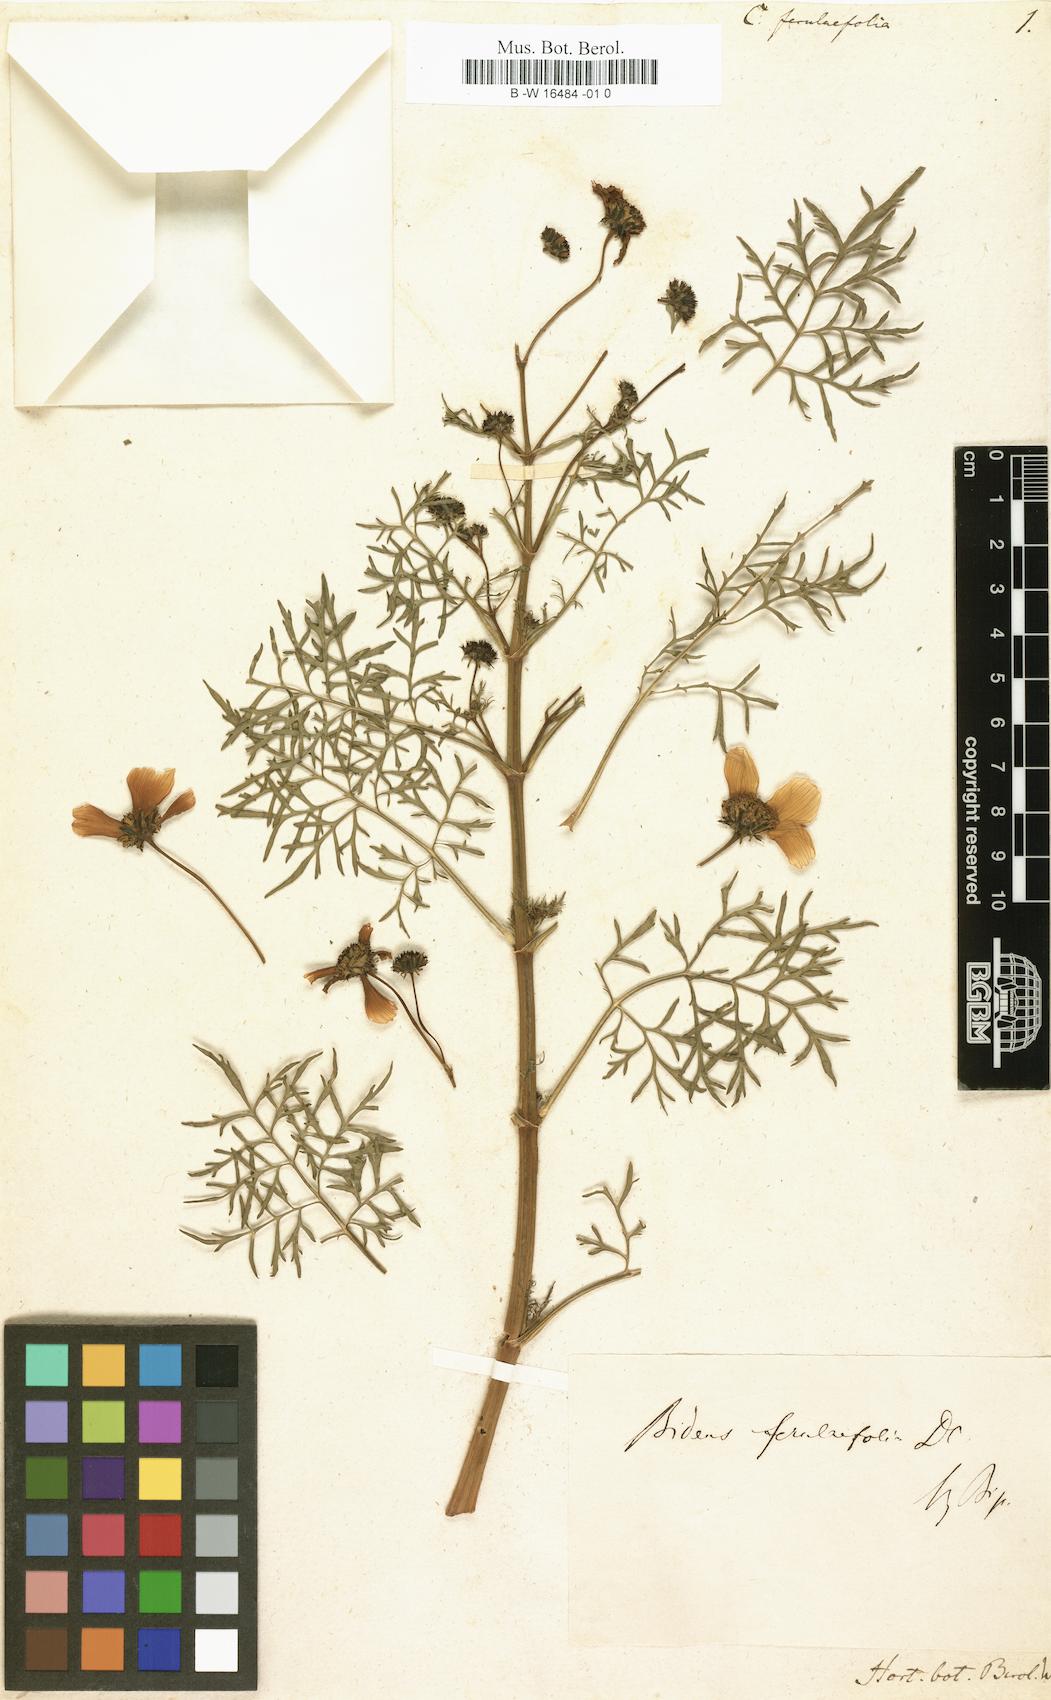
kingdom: Plantae
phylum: Tracheophyta
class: Magnoliopsida
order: Asterales
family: Asteraceae
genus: Bidens
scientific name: Bidens aurea
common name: Arizona beggar-ticks
